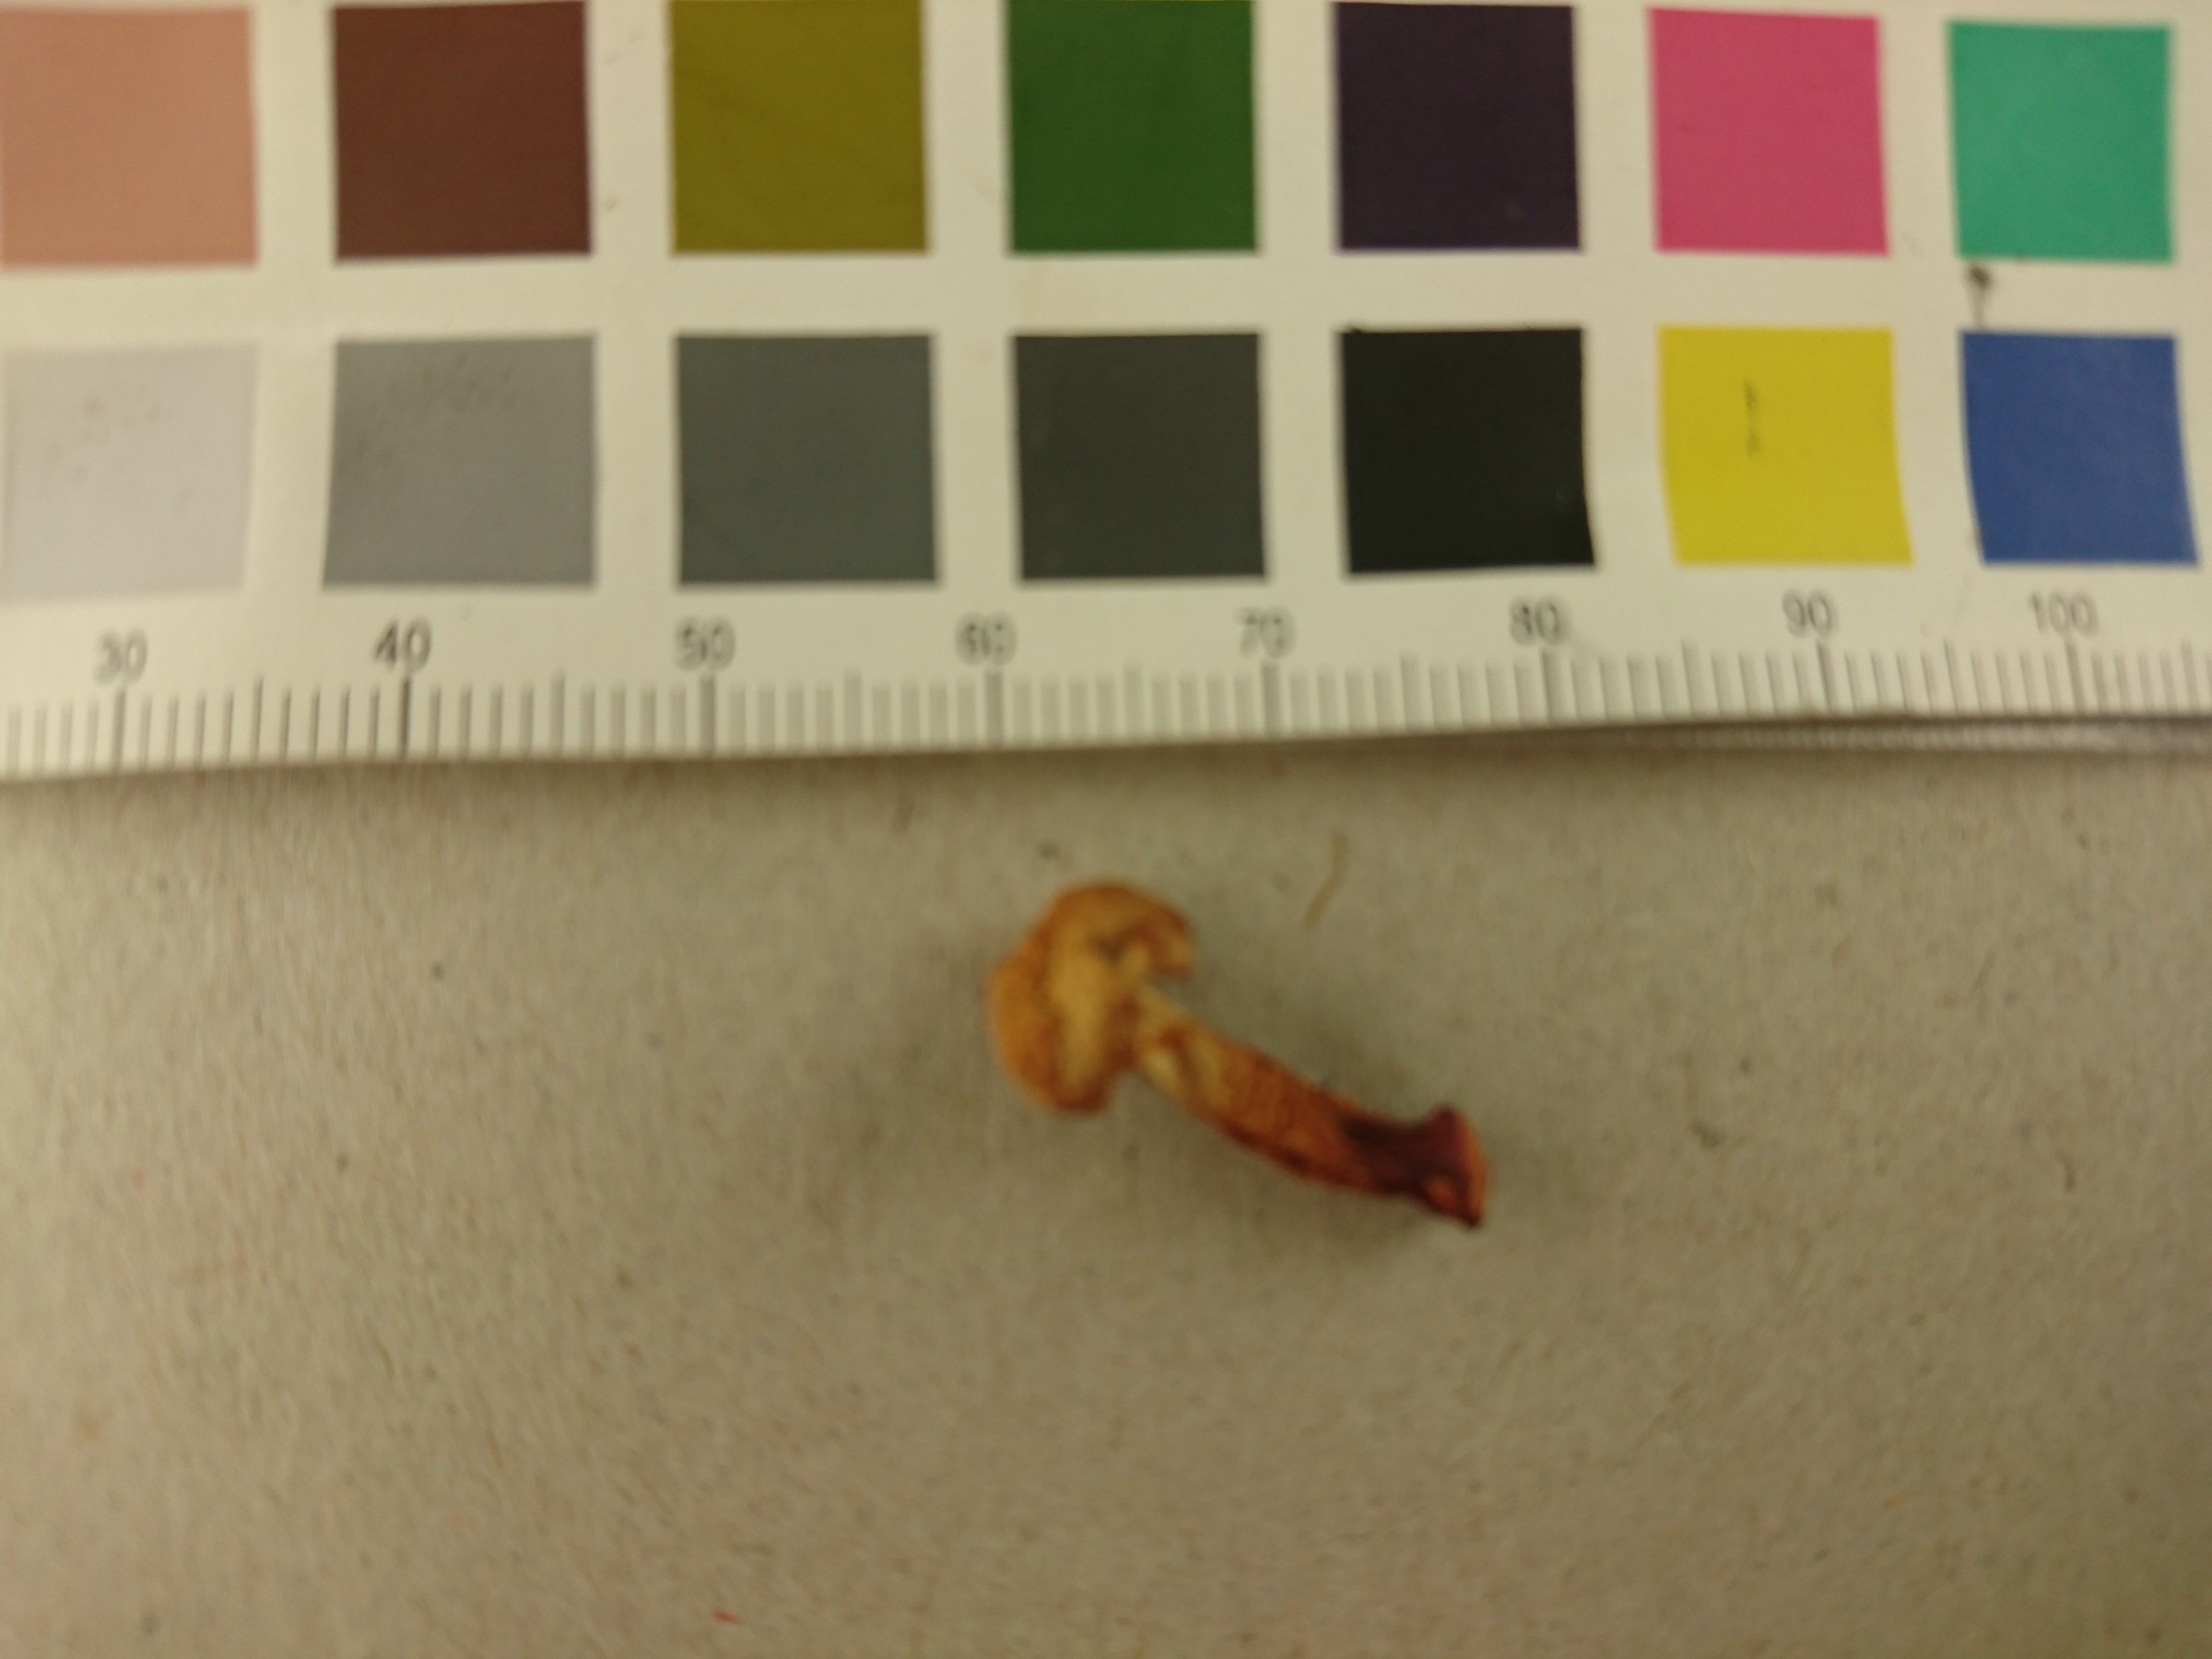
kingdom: Fungi
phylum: Basidiomycota
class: Agaricomycetes
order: Cantharellales
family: Hydnaceae
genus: Cantharellus
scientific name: Cantharellus friesii
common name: Orange chanterelle
